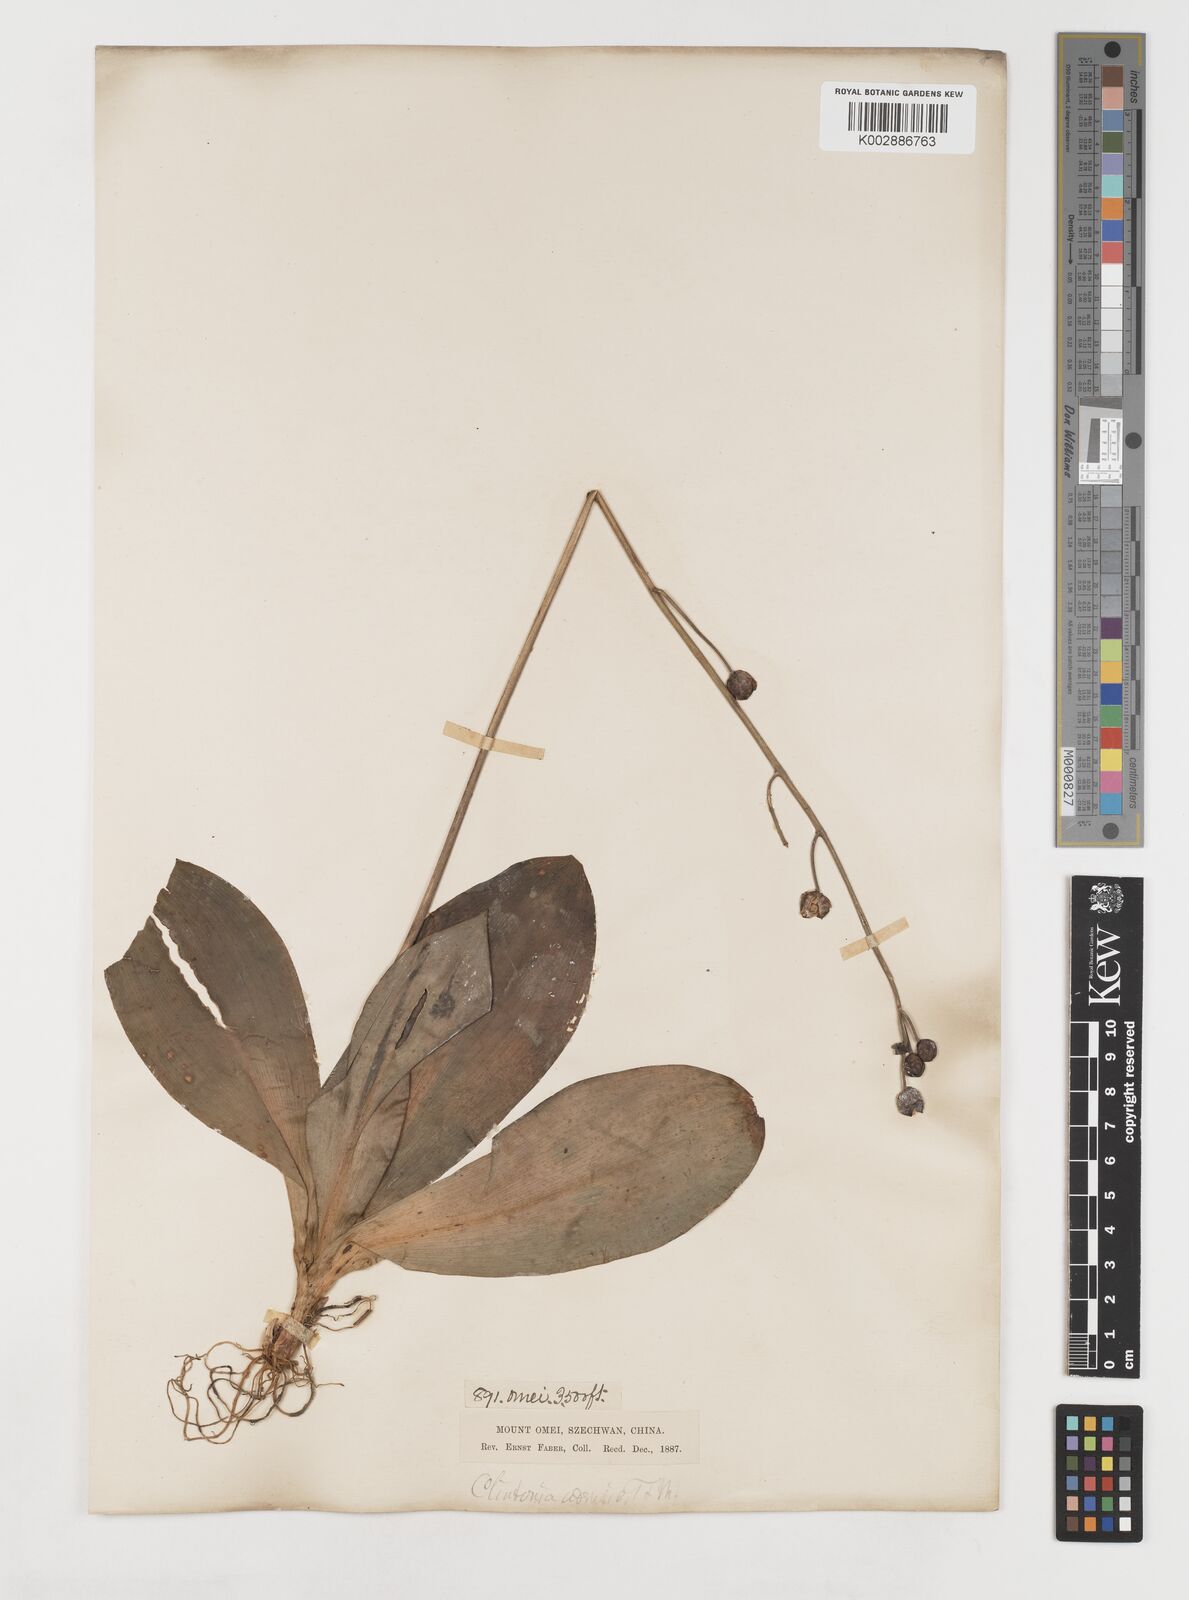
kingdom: Plantae
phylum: Tracheophyta
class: Liliopsida
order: Liliales
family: Liliaceae
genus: Clintonia
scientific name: Clintonia udensis
